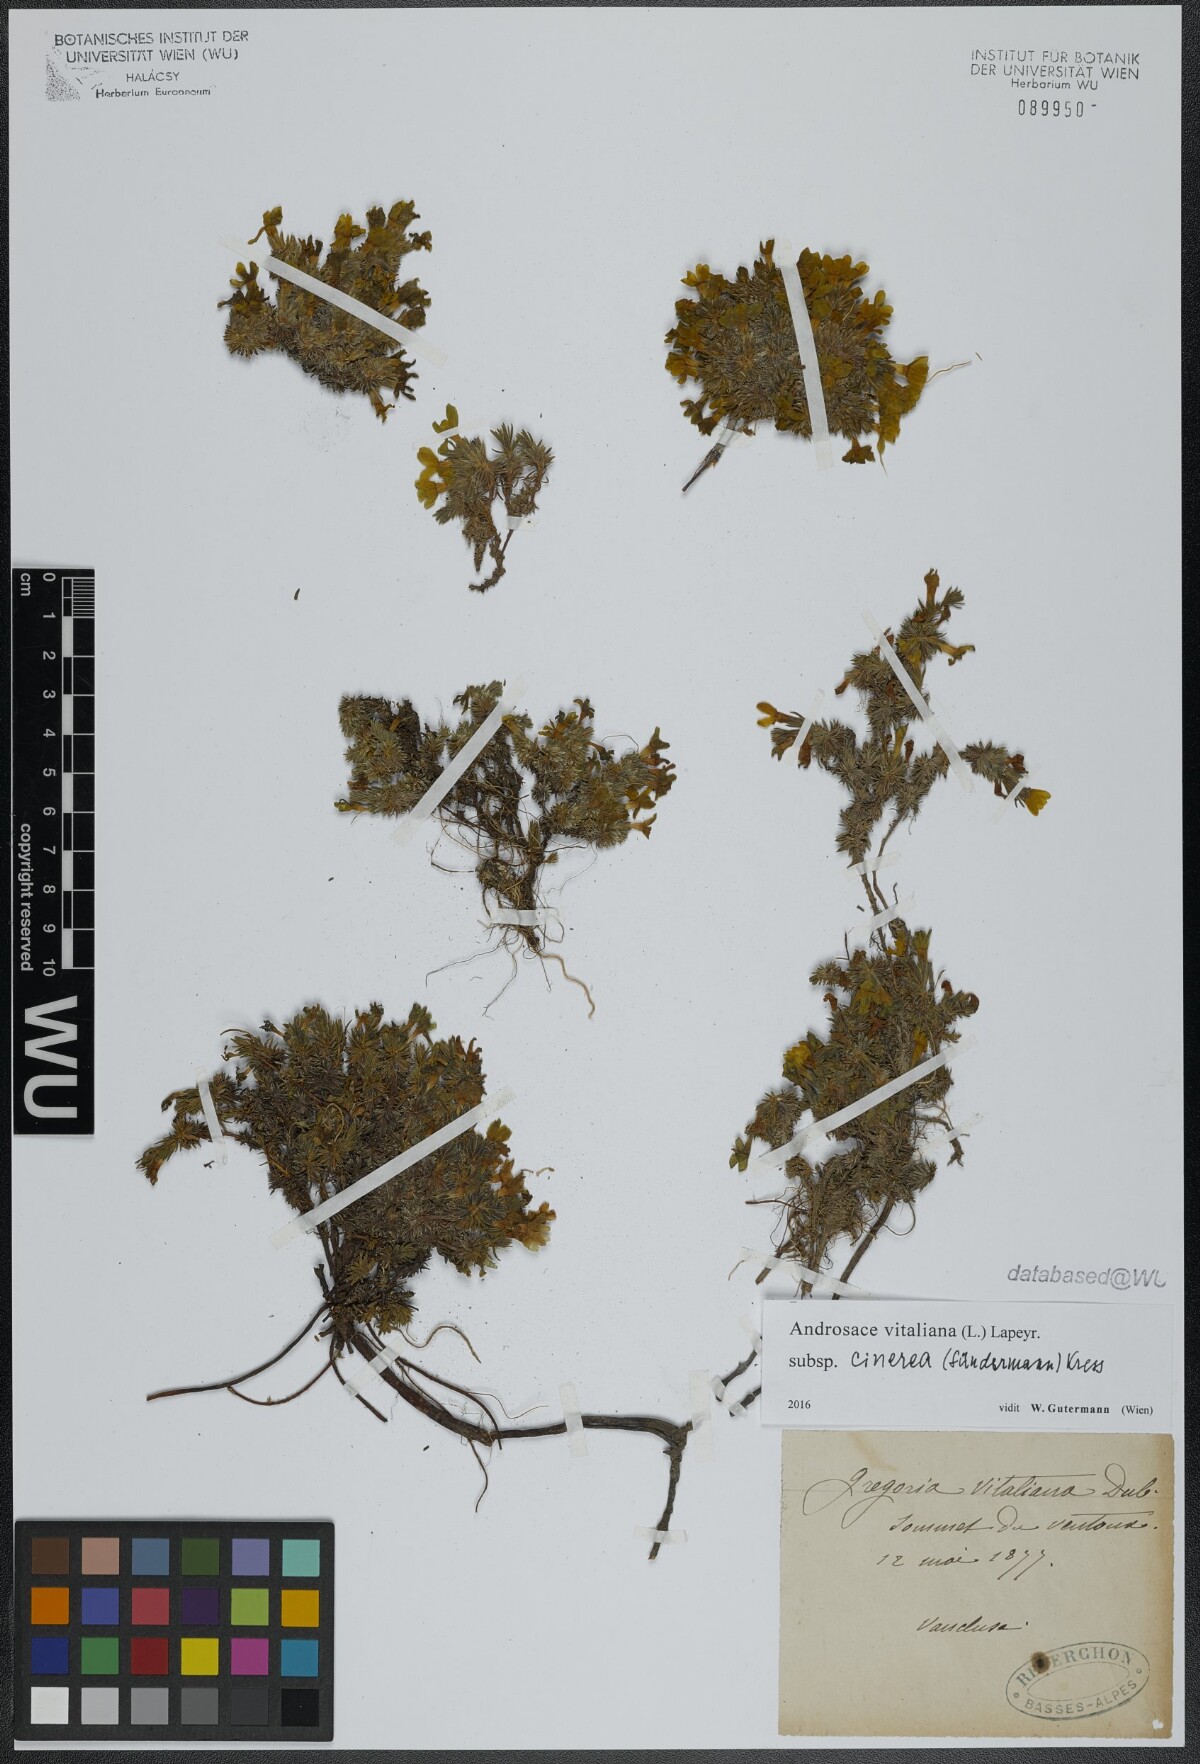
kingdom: Plantae
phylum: Tracheophyta
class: Magnoliopsida
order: Ericales
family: Primulaceae
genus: Androsace
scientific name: Androsace vitaliana
